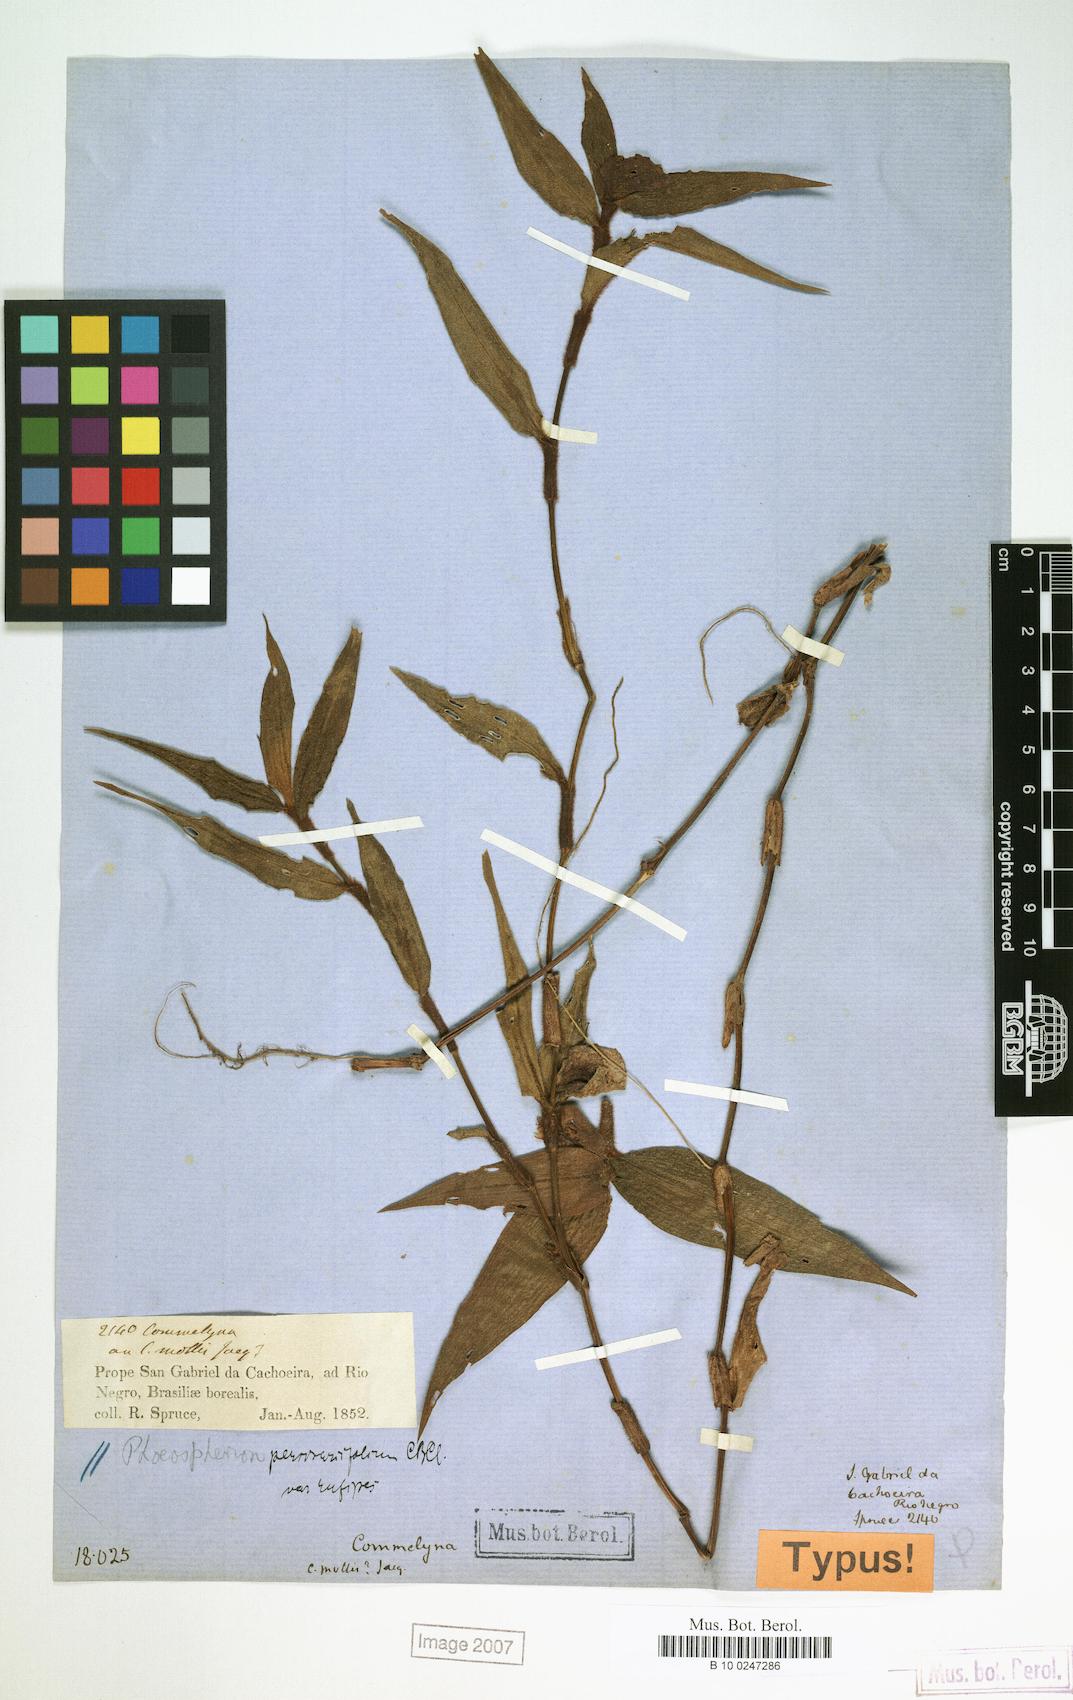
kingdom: Plantae
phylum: Tracheophyta
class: Liliopsida
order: Commelinales
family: Commelinaceae
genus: Commelina
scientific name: Commelina rufipes
